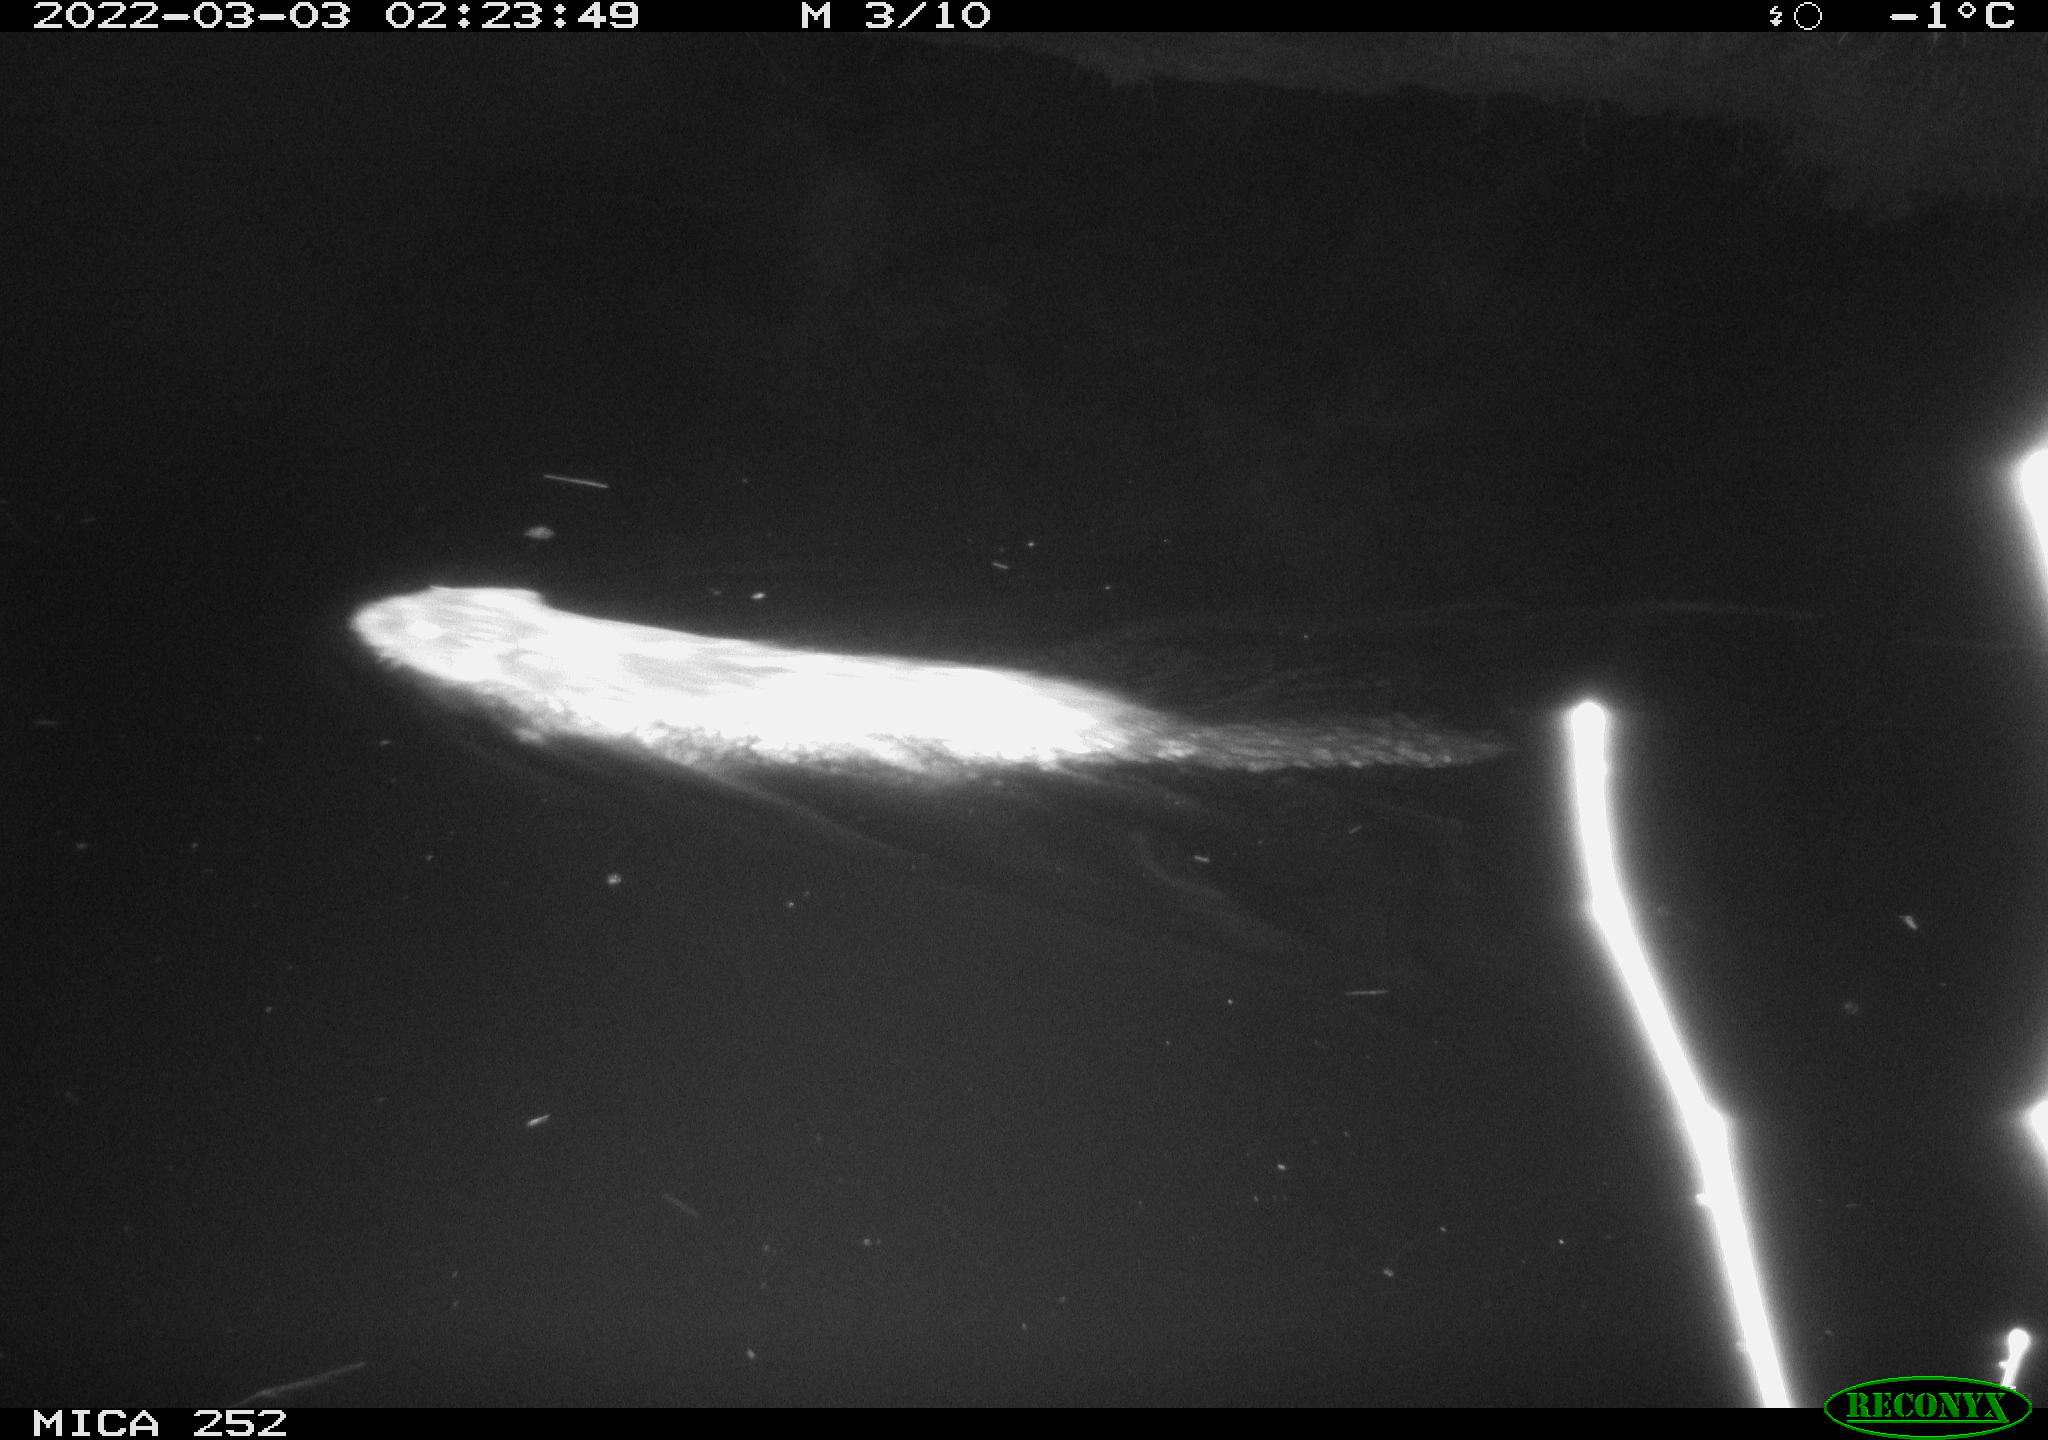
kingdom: Animalia
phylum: Chordata
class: Mammalia
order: Rodentia
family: Castoridae
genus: Castor
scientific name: Castor fiber
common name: Eurasian beaver
